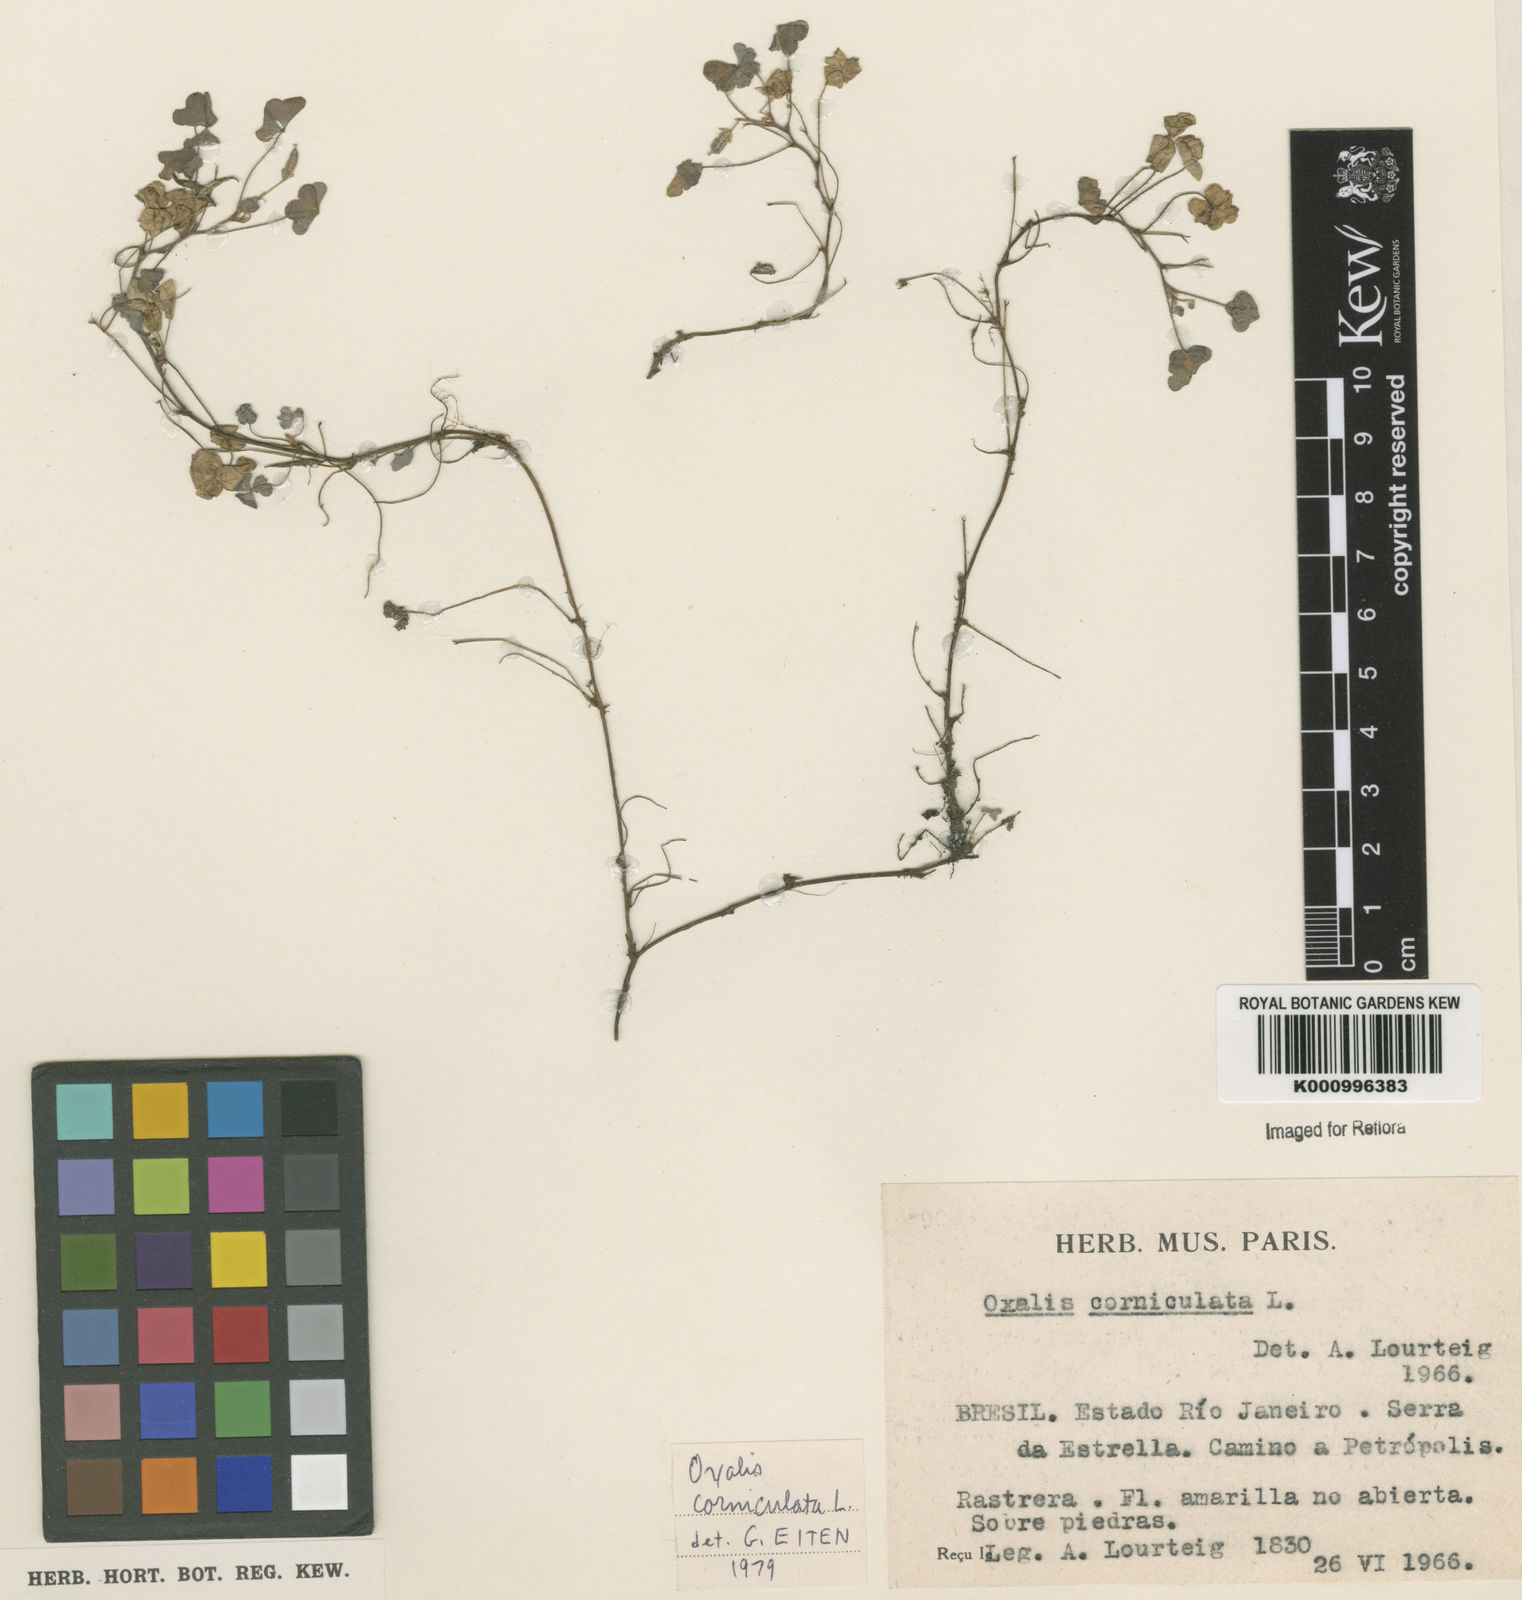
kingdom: Plantae
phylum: Tracheophyta
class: Magnoliopsida
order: Oxalidales
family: Oxalidaceae
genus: Oxalis
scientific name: Oxalis corniculata
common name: Procumbent yellow-sorrel
